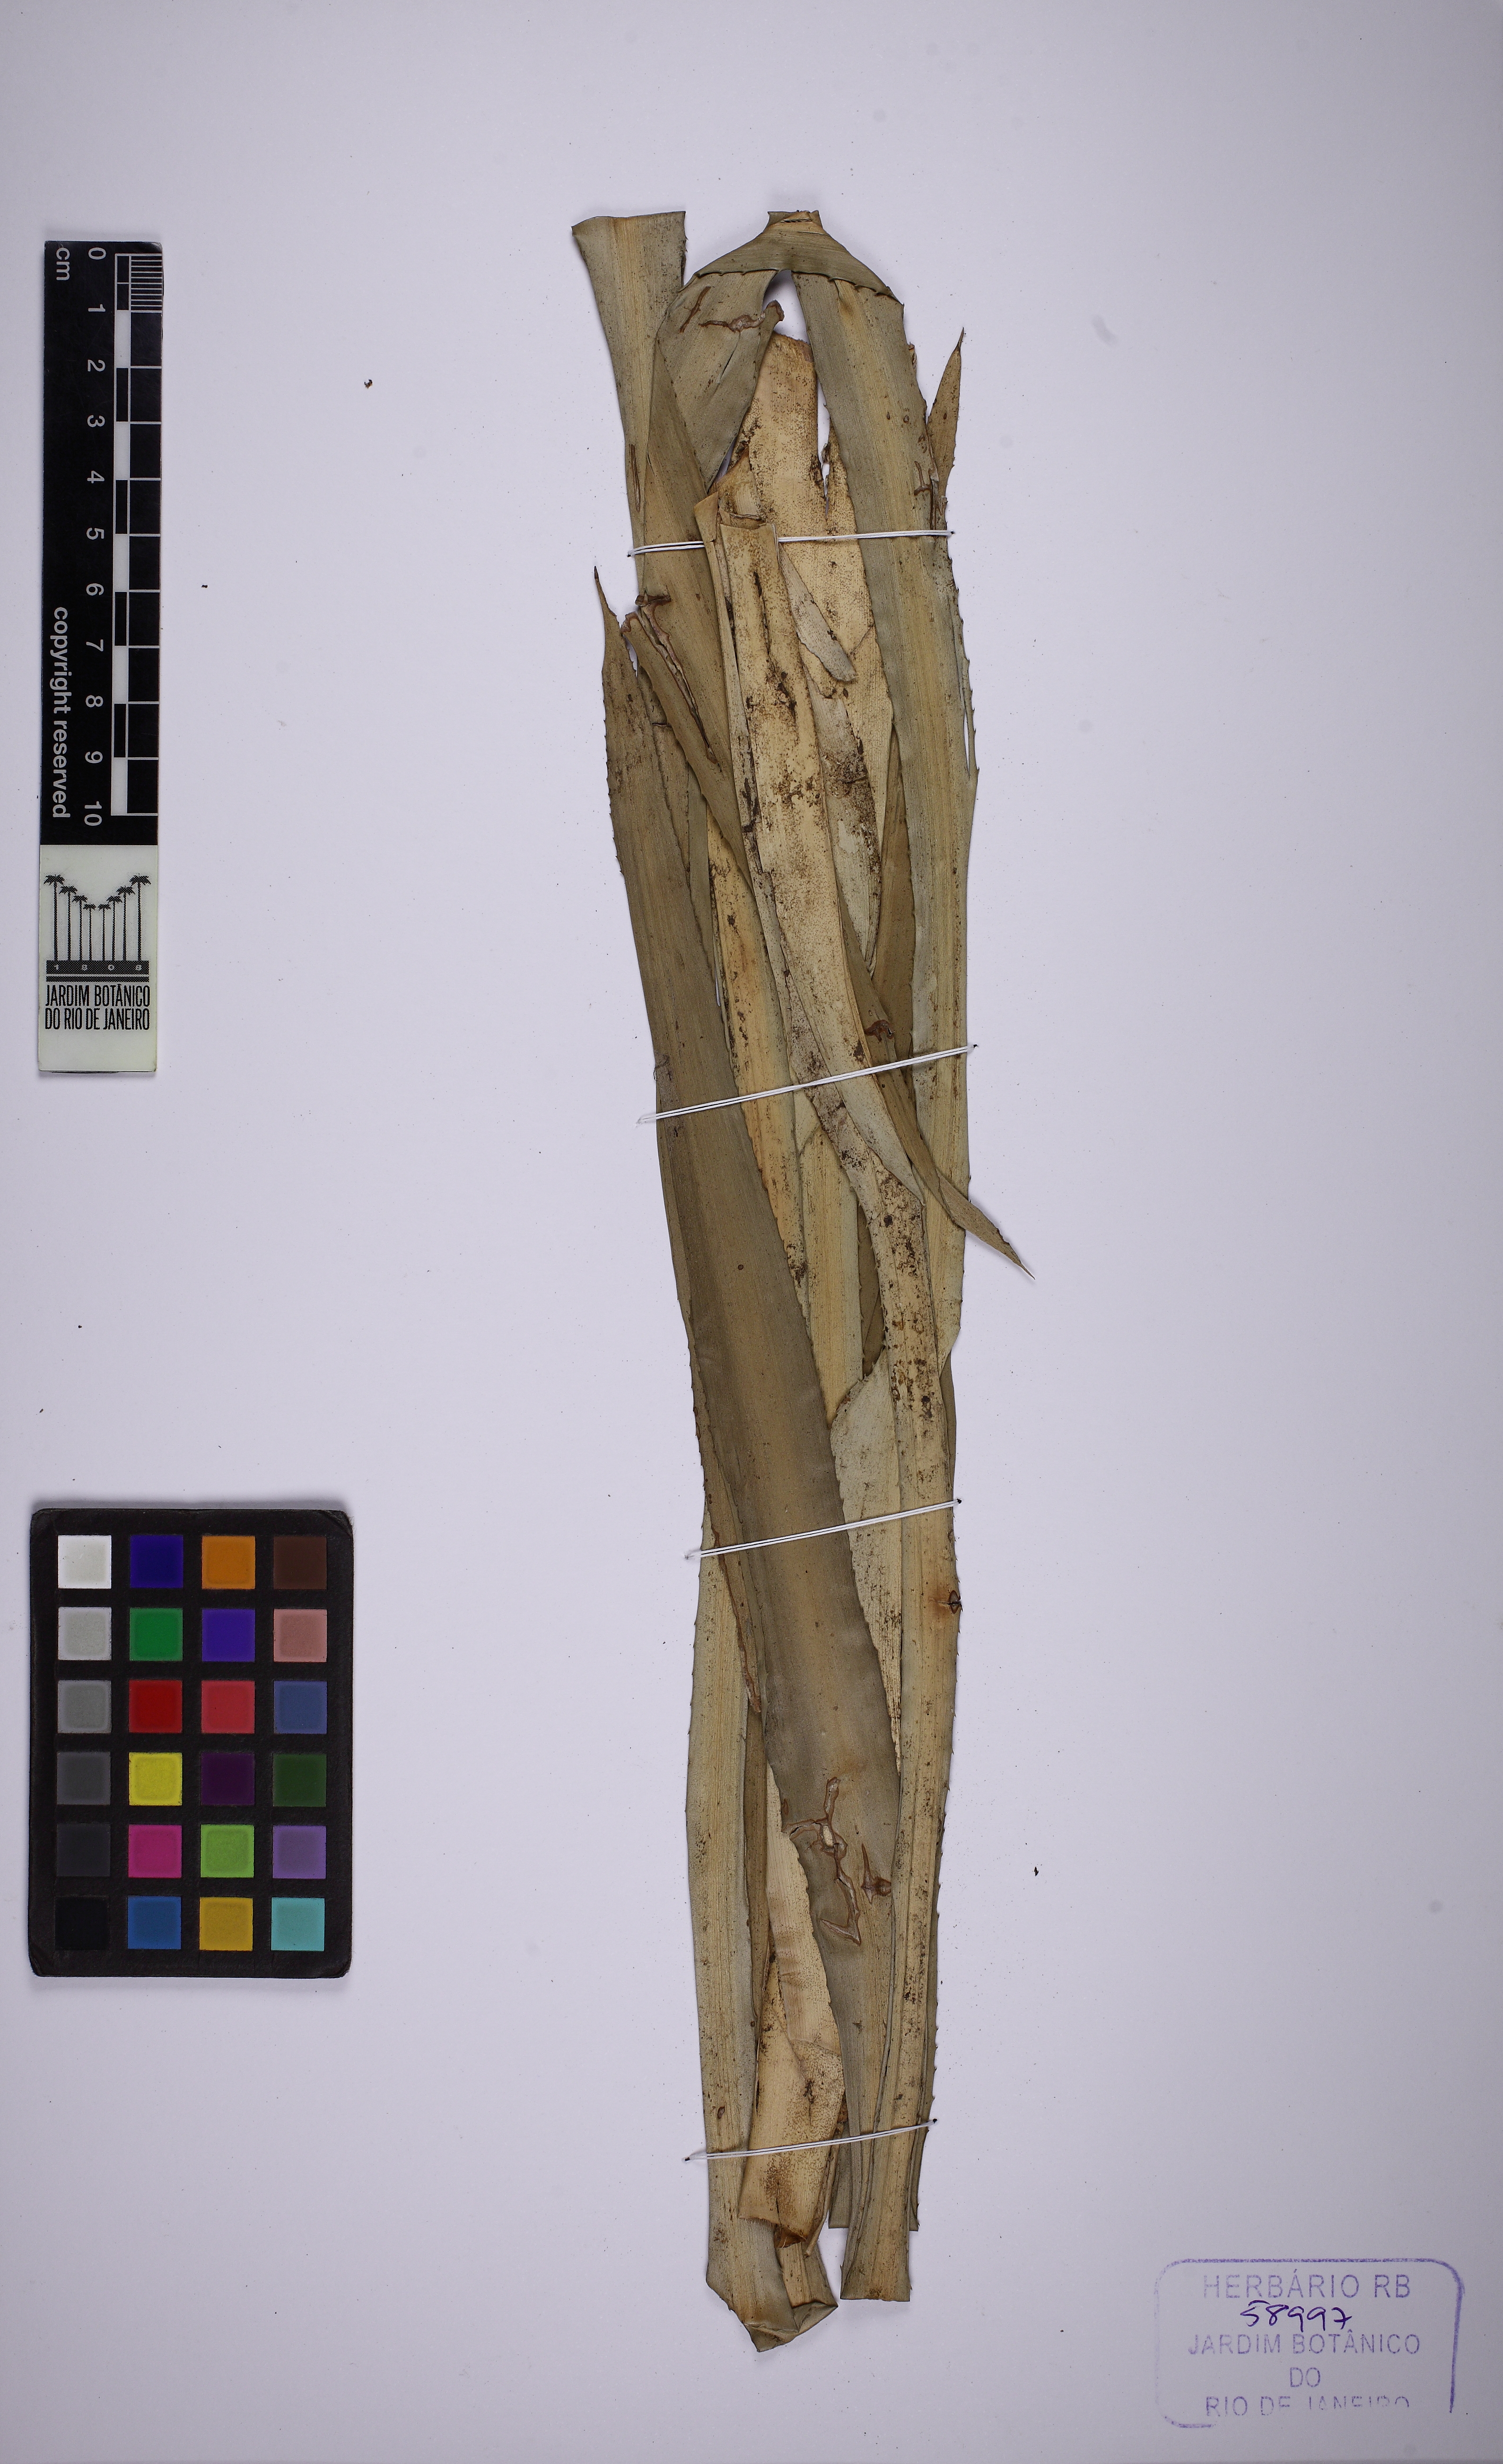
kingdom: Plantae
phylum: Tracheophyta
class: Liliopsida
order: Poales
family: Bromeliaceae
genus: Nidularium
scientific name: Nidularium scheremetiewii
